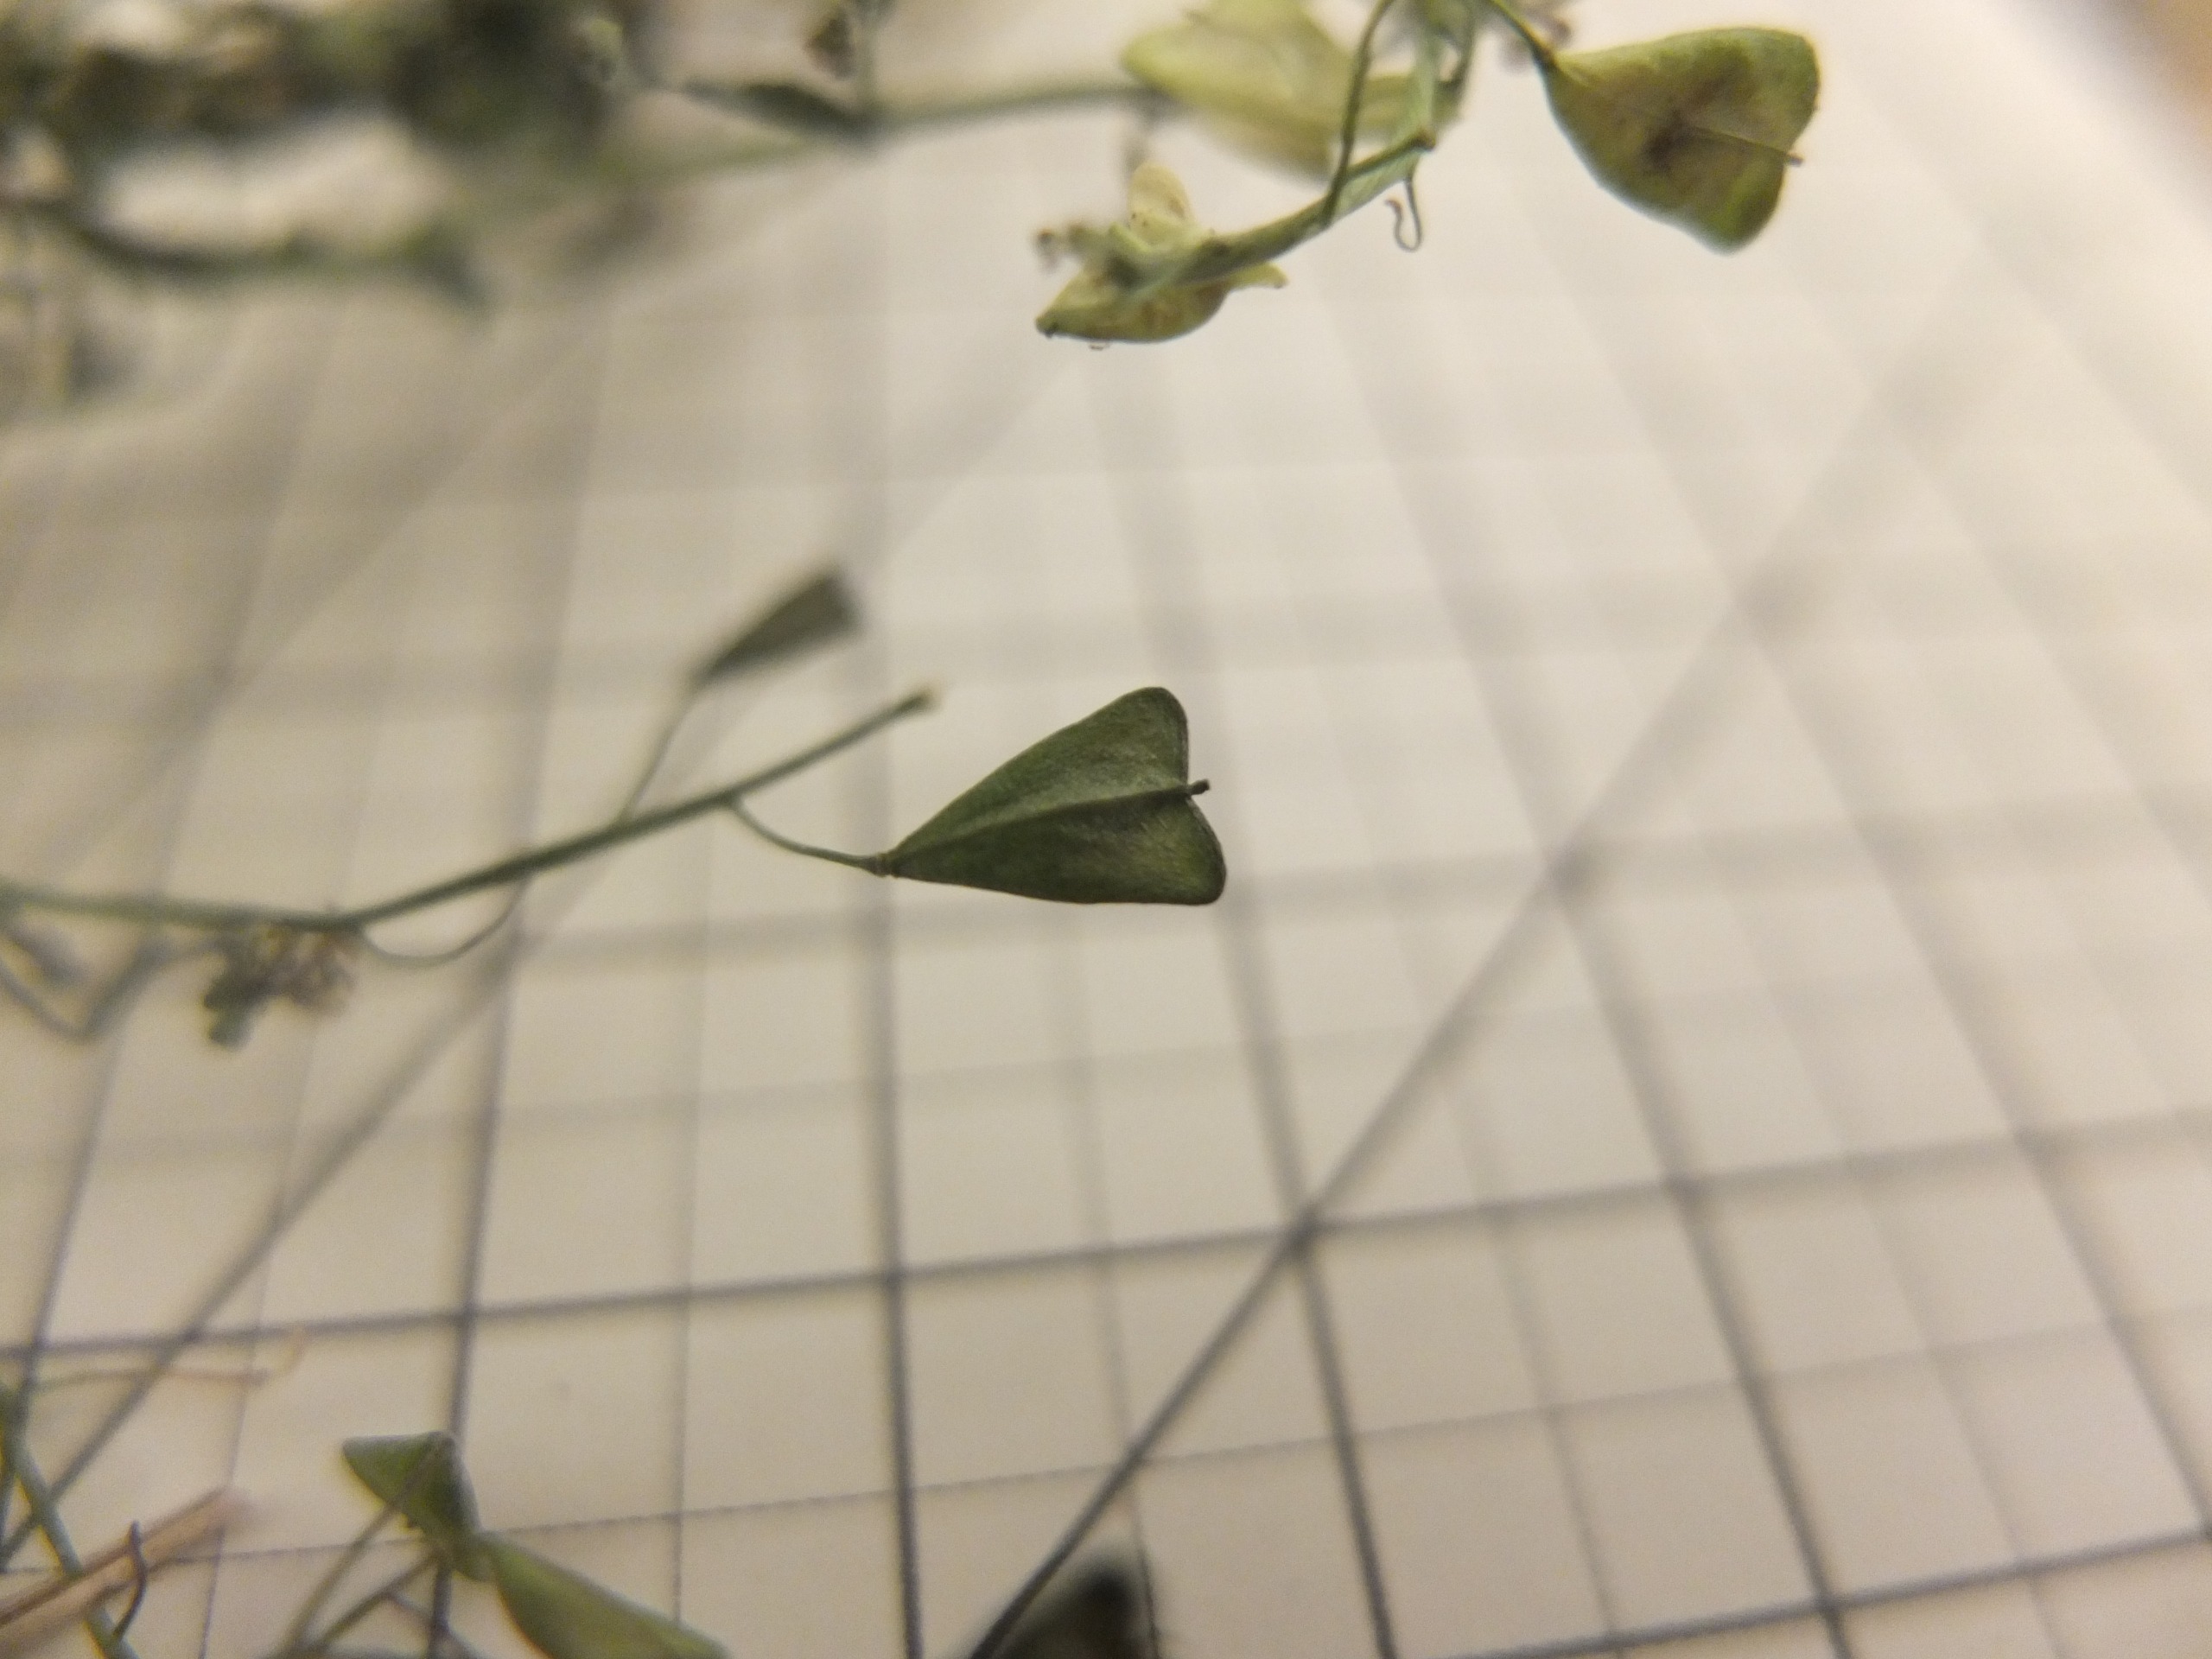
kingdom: Plantae
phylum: Tracheophyta
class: Magnoliopsida
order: Brassicales
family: Brassicaceae
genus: Capsella
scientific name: Capsella bursa-pastoris
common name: Hyrdetaske
